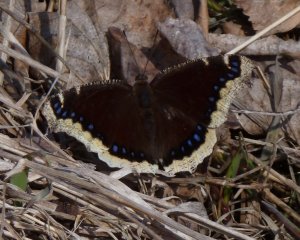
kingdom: Animalia
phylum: Arthropoda
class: Insecta
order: Lepidoptera
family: Nymphalidae
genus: Nymphalis
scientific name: Nymphalis antiopa
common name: Mourning Cloak
